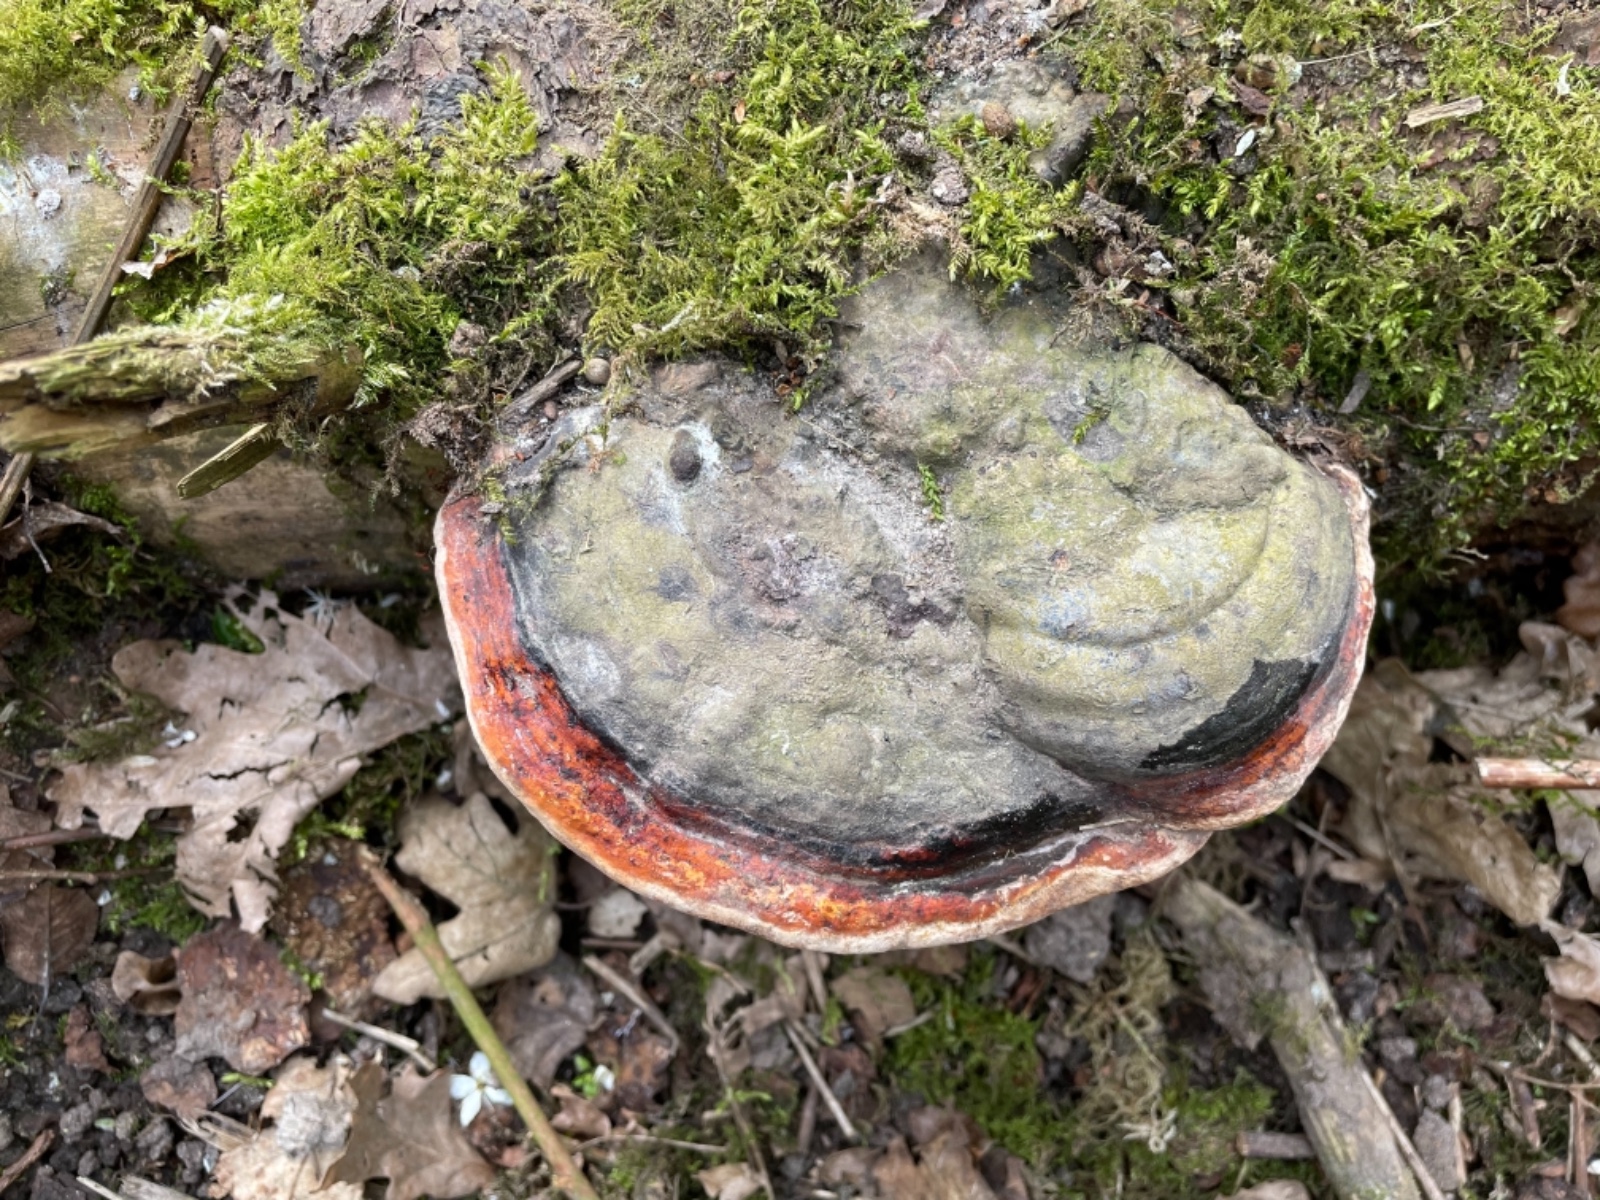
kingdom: Fungi
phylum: Basidiomycota
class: Agaricomycetes
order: Polyporales
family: Fomitopsidaceae
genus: Fomitopsis
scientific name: Fomitopsis pinicola
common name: randbæltet hovporesvamp
